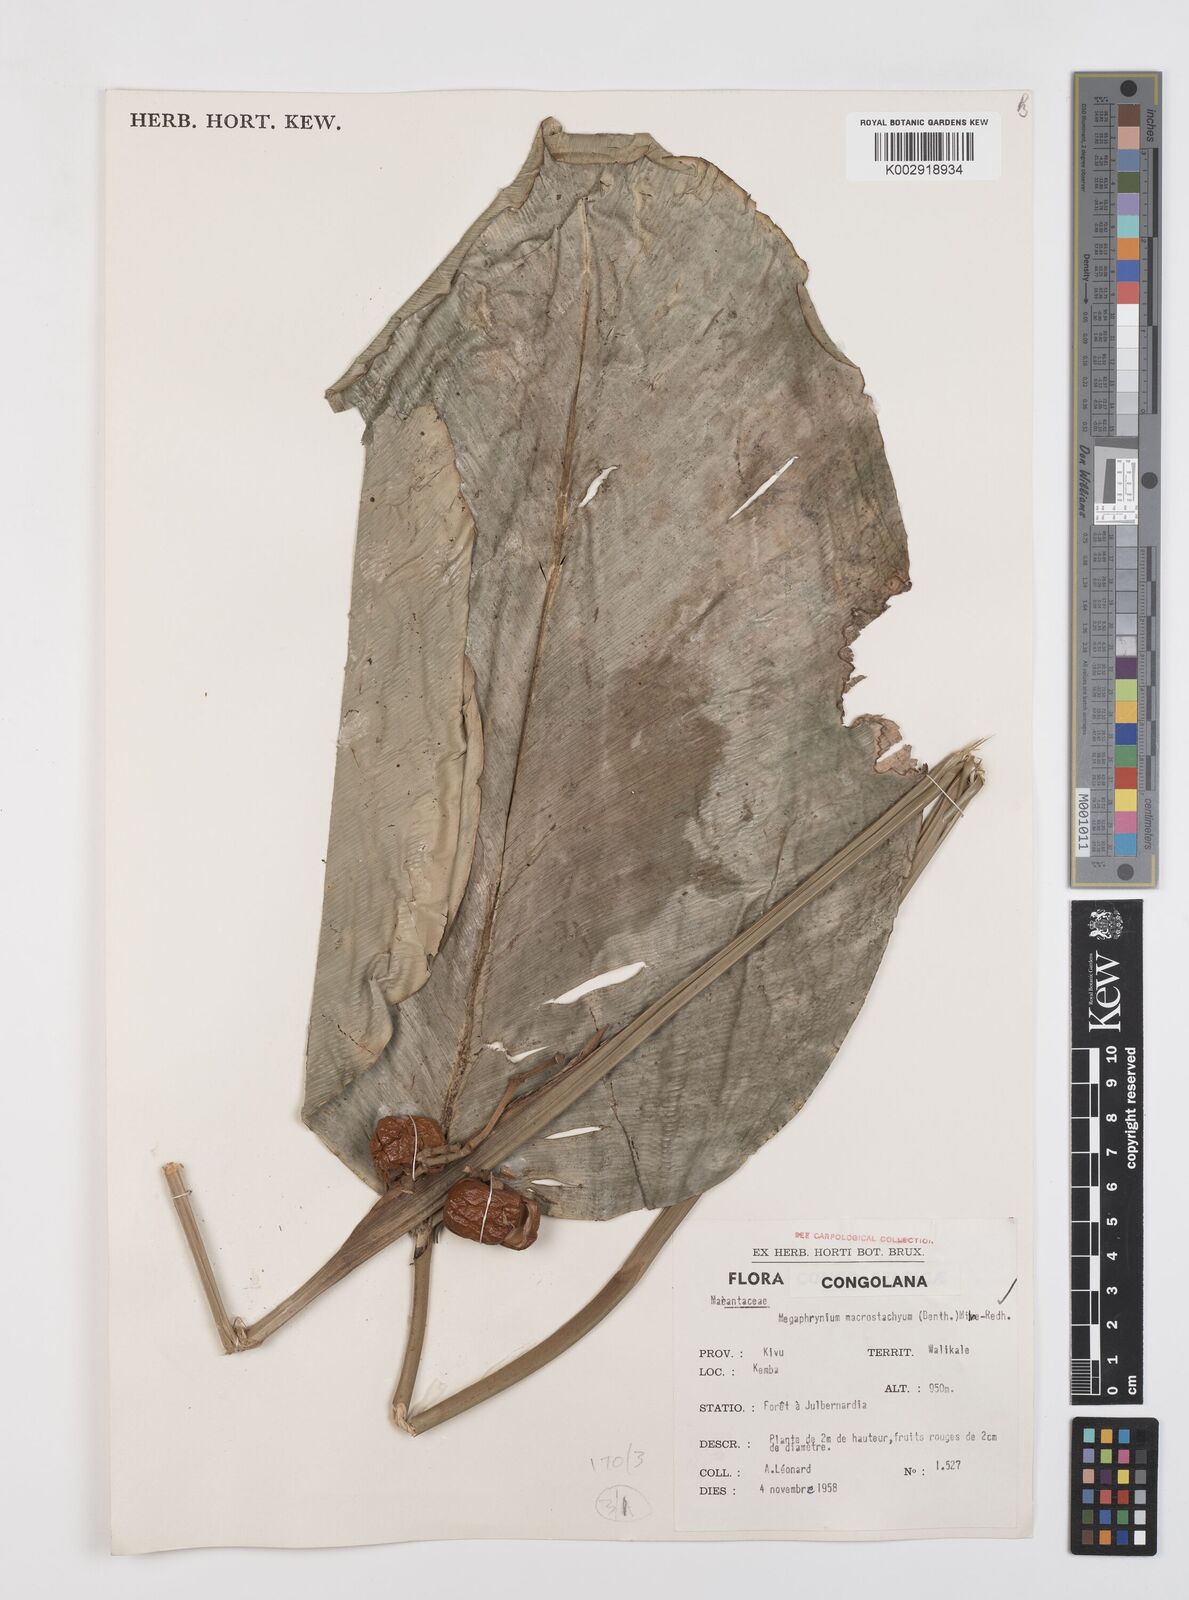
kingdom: Plantae
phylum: Tracheophyta
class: Liliopsida
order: Zingiberales
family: Marantaceae
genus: Megaphrynium
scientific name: Megaphrynium macrostachyum
